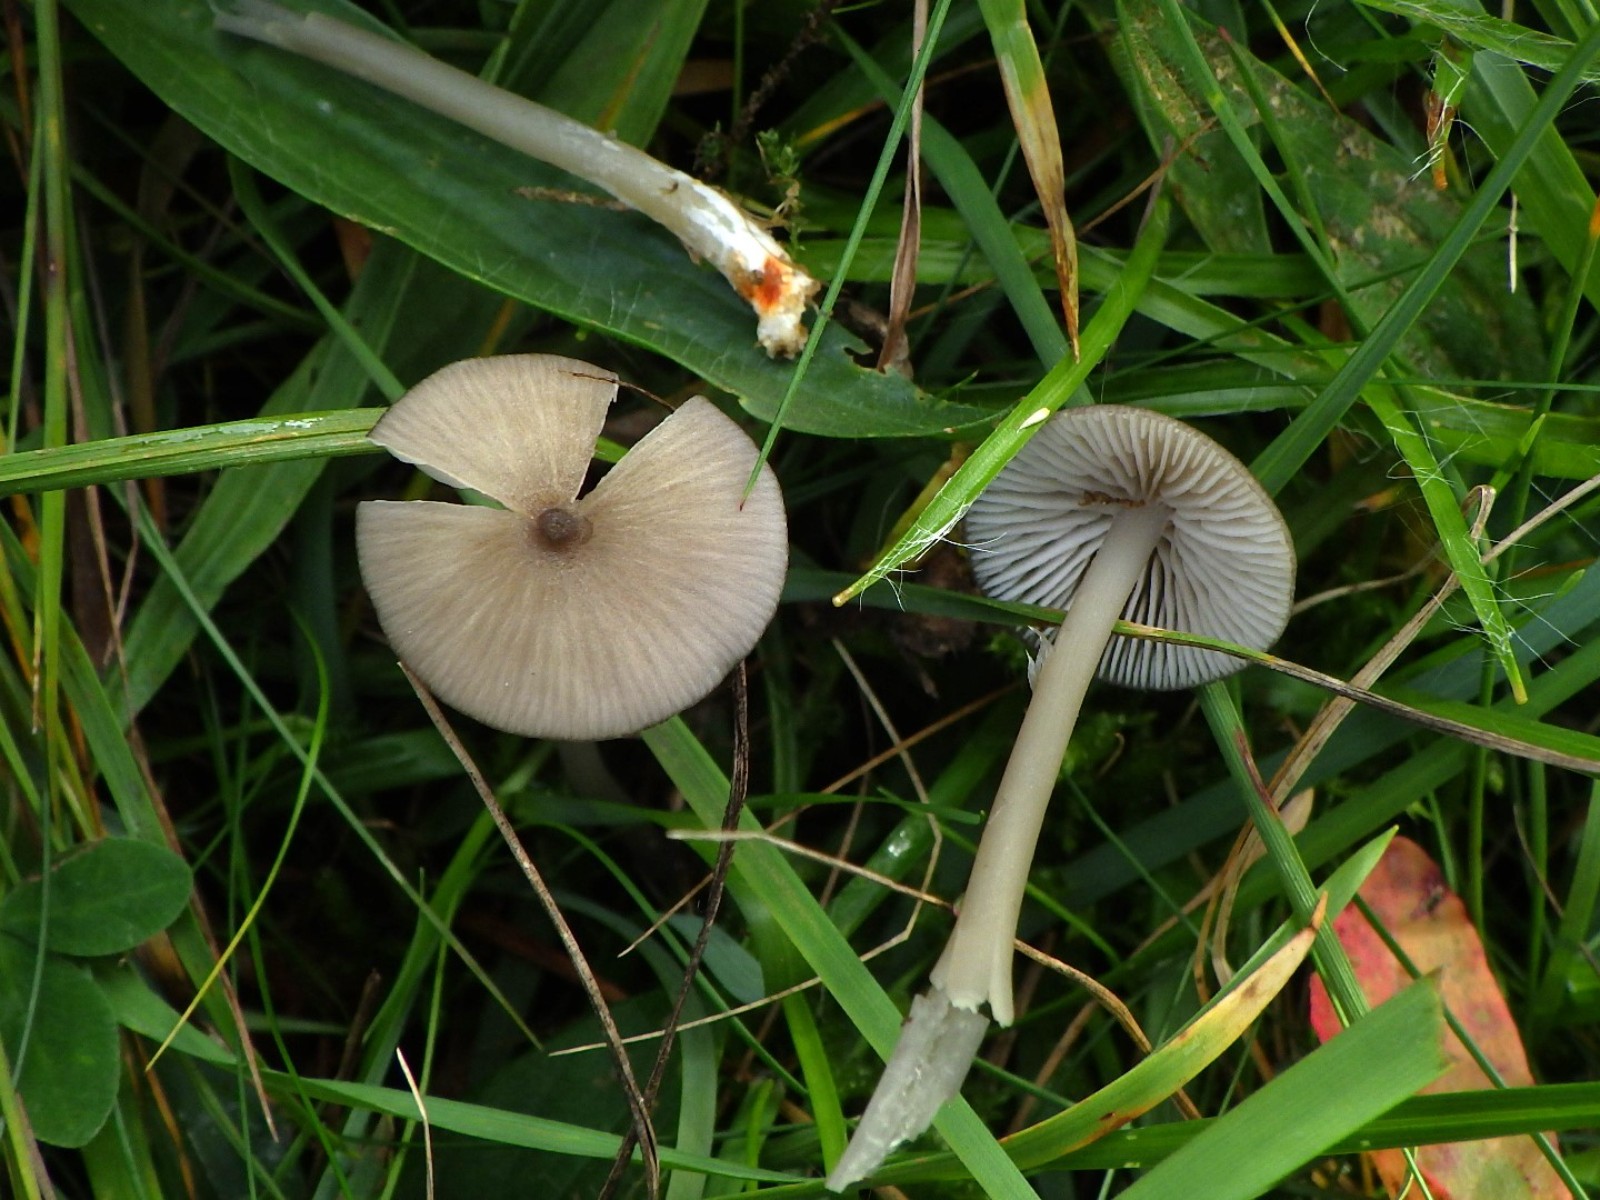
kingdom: Fungi
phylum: Basidiomycota
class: Agaricomycetes
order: Agaricales
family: Entolomataceae
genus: Entoloma
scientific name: Entoloma exile
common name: rødplettet rødblad
